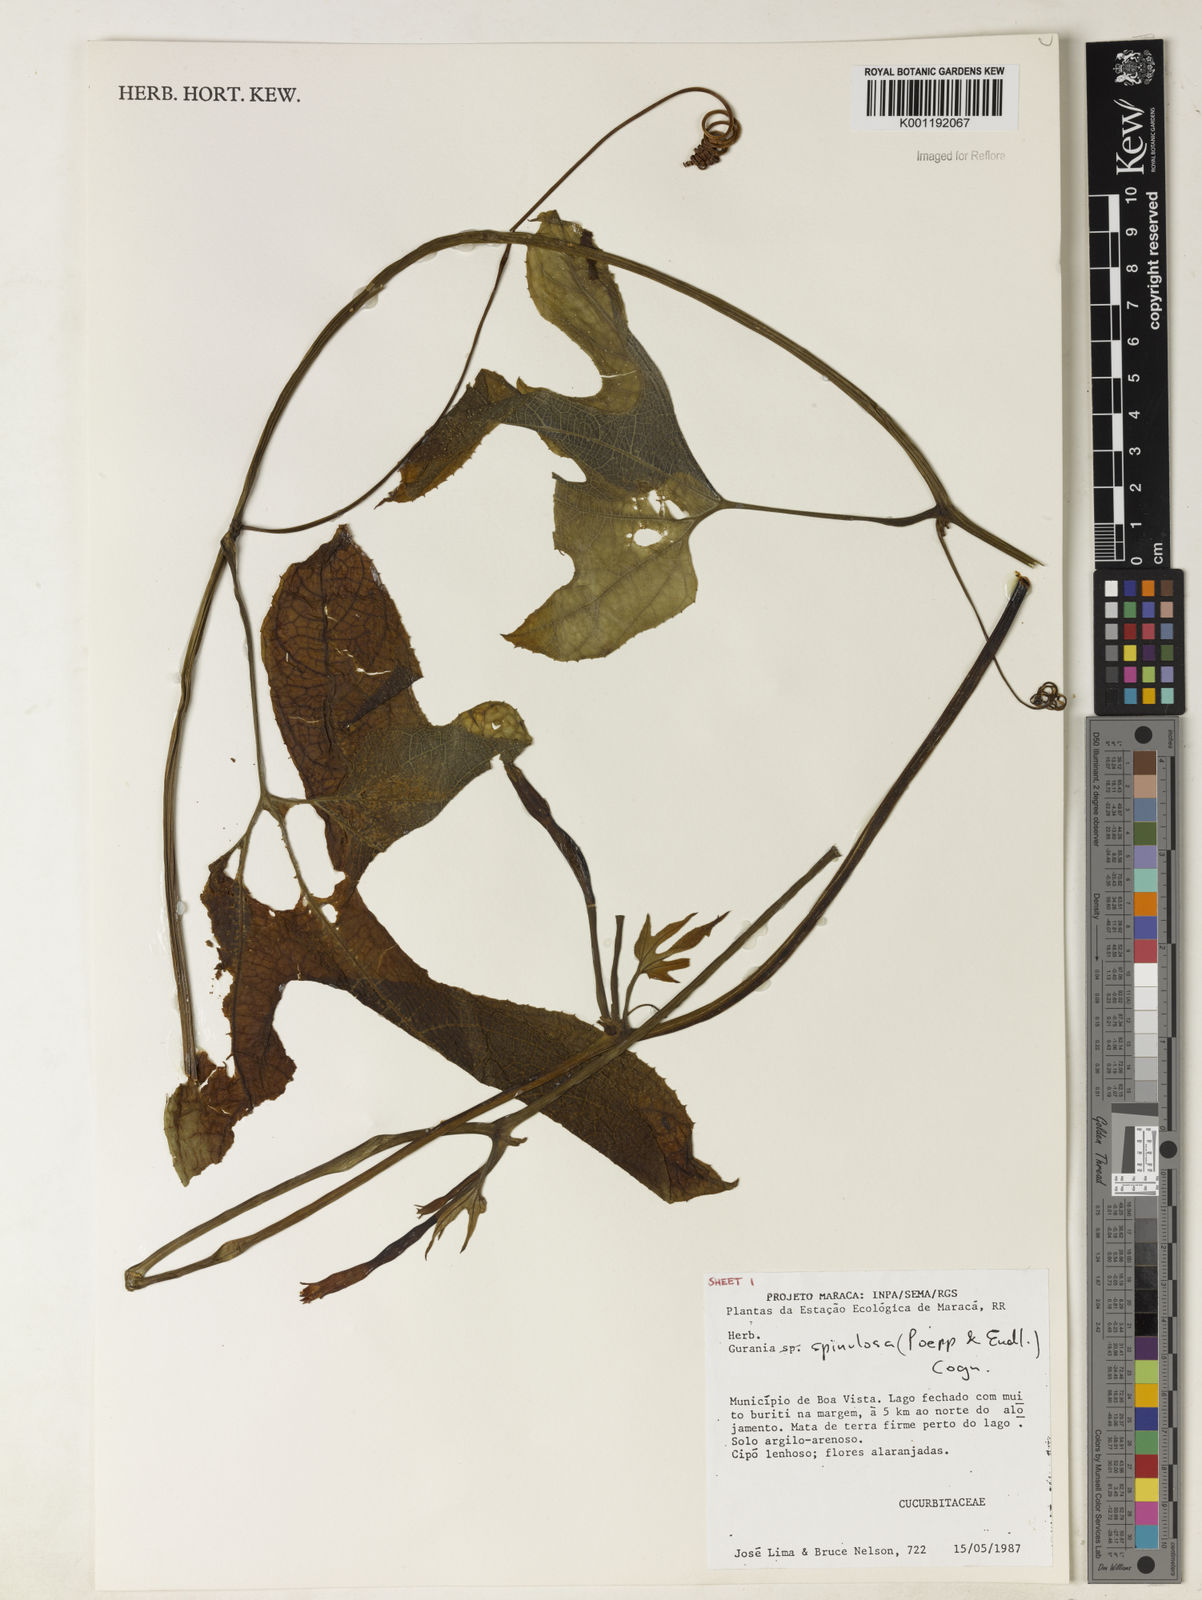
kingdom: Plantae
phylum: Tracheophyta
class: Magnoliopsida
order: Cucurbitales
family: Cucurbitaceae
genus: Gurania
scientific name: Gurania lobata
